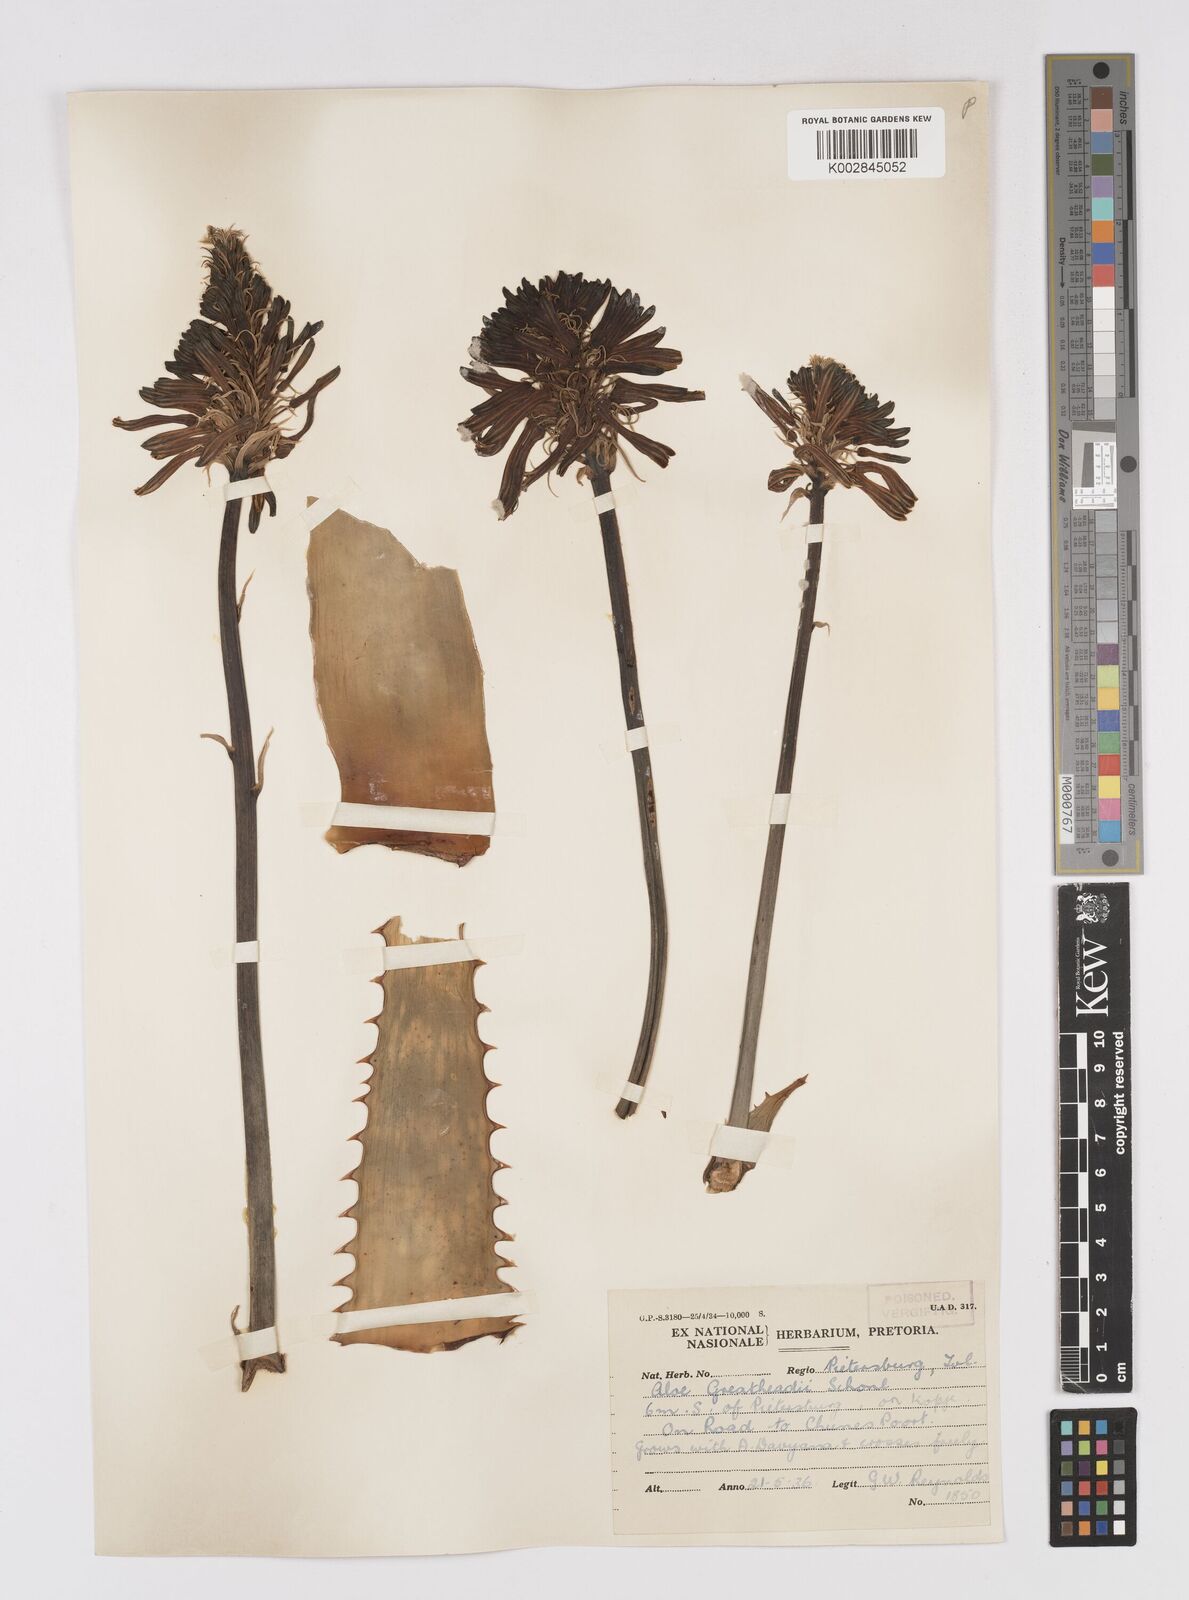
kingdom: Plantae
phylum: Tracheophyta
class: Liliopsida
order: Asparagales
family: Asphodelaceae
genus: Aloe
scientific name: Aloe greatheadii
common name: Greathead's aloe
